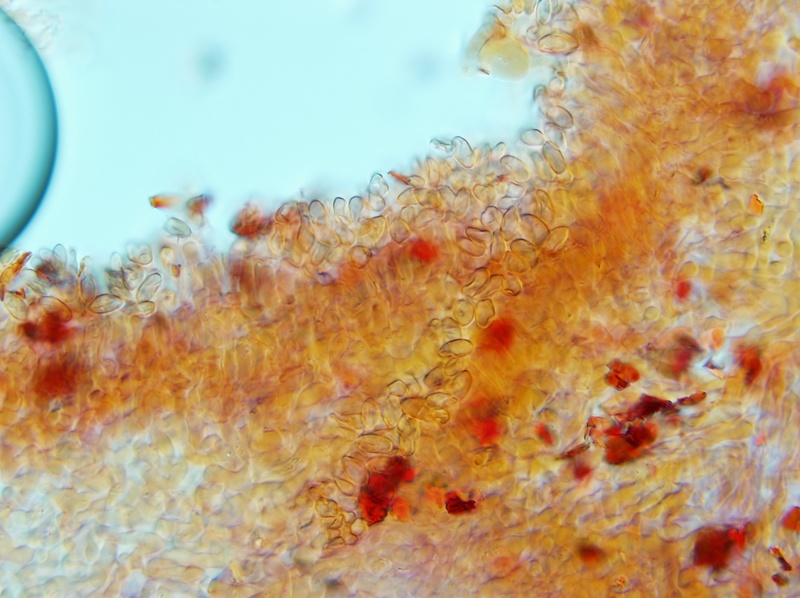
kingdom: Fungi
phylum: Basidiomycota
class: Agaricomycetes
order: Boletales
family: Rhizopogonaceae
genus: Rhizopogon
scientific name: Rhizopogon marchii
